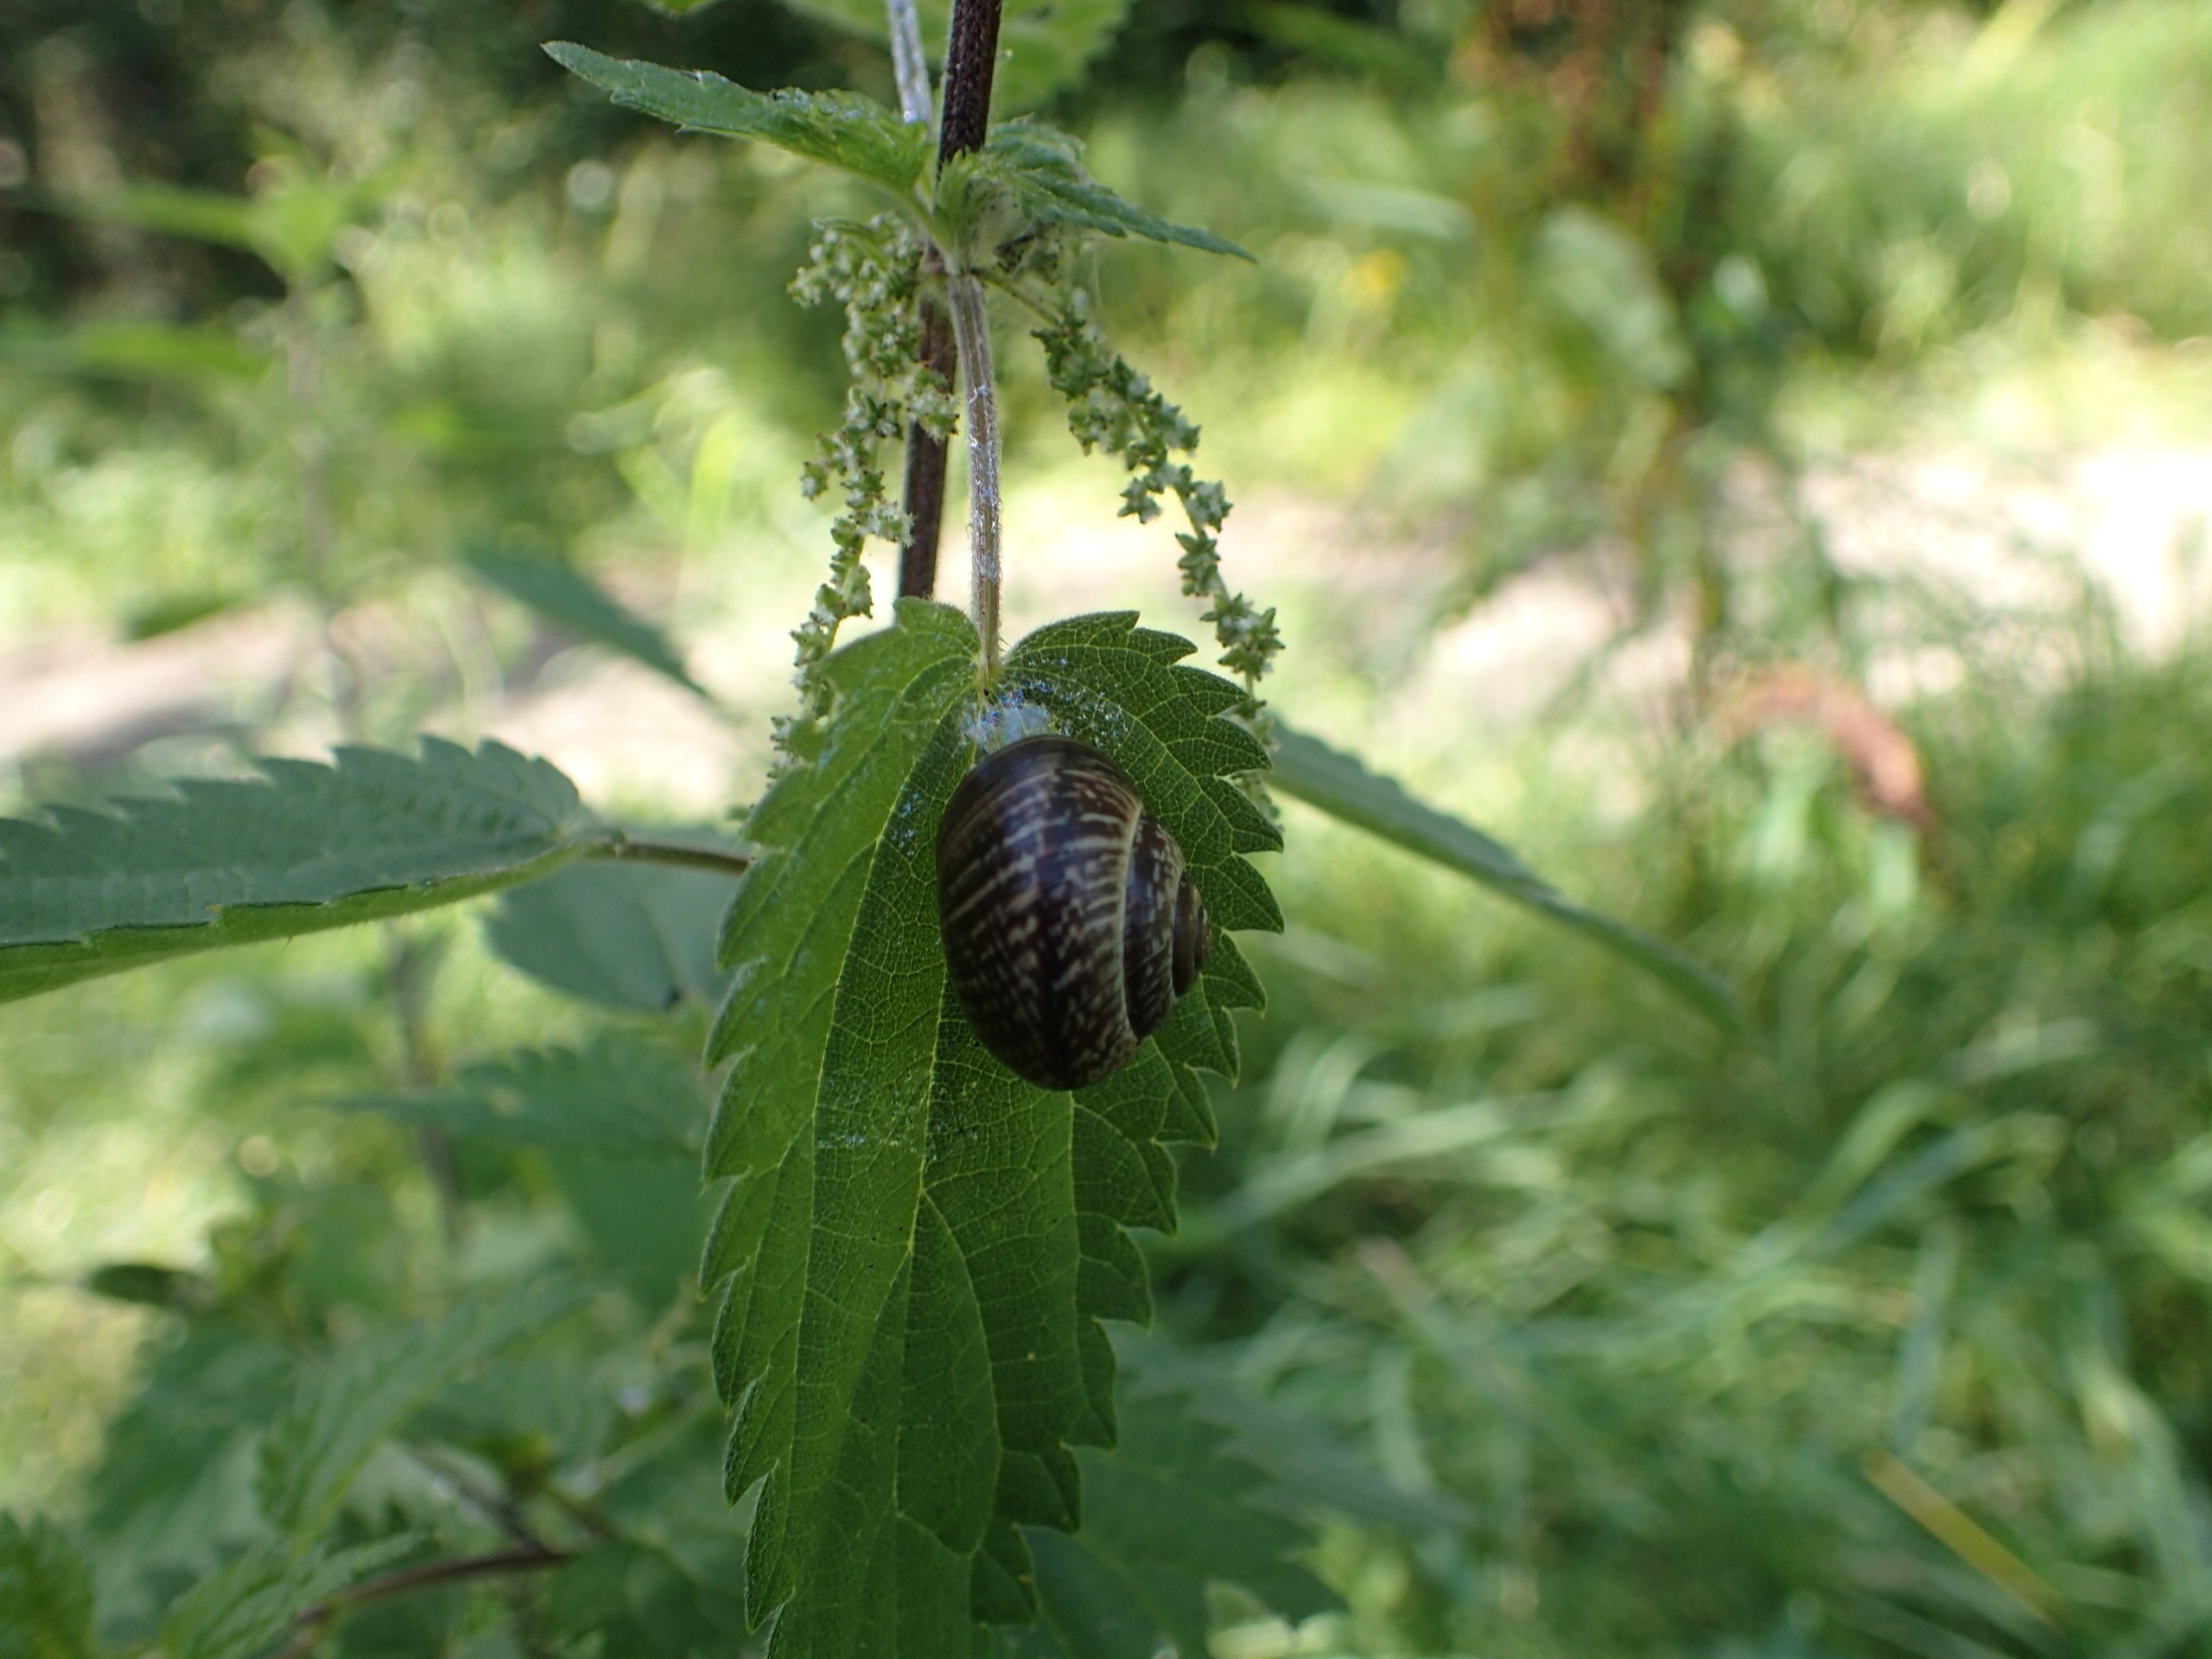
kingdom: Animalia
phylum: Mollusca
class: Gastropoda
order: Stylommatophora
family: Helicidae
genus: Arianta
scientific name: Arianta arbustorum
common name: Kratsnegl
